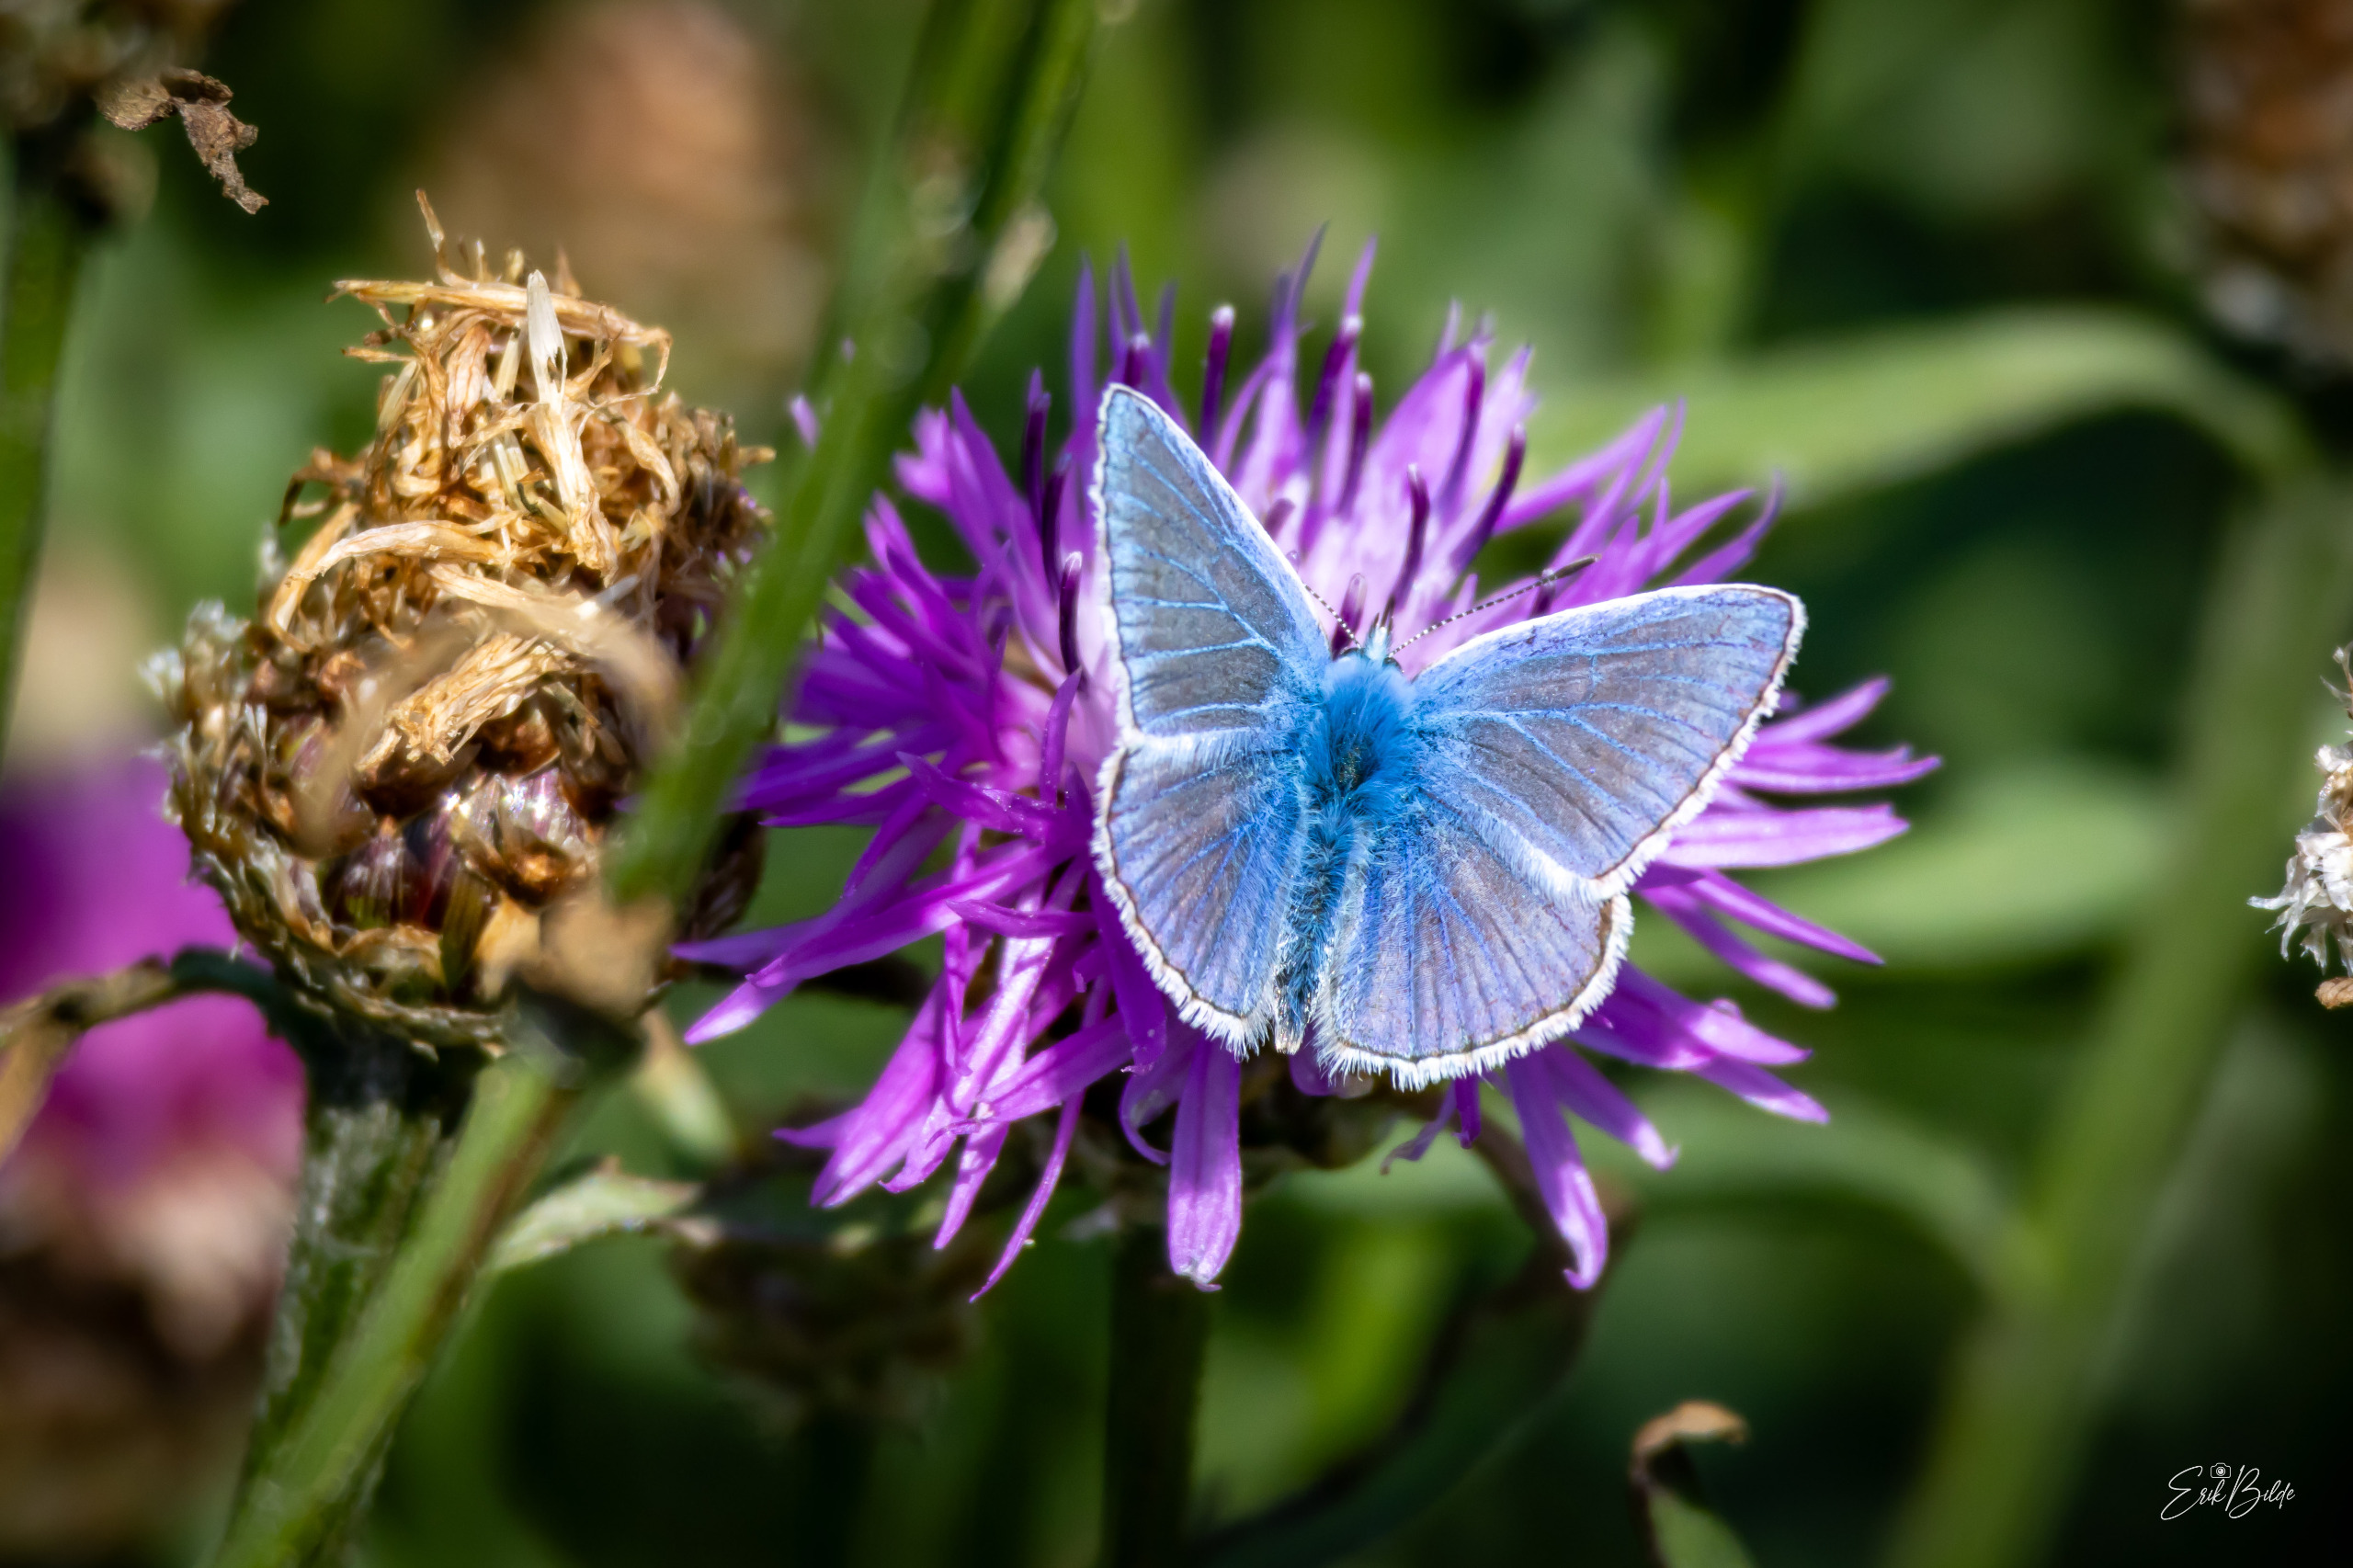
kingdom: Animalia
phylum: Arthropoda
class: Insecta
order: Lepidoptera
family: Lycaenidae
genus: Polyommatus
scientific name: Polyommatus icarus
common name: Almindelig blåfugl
